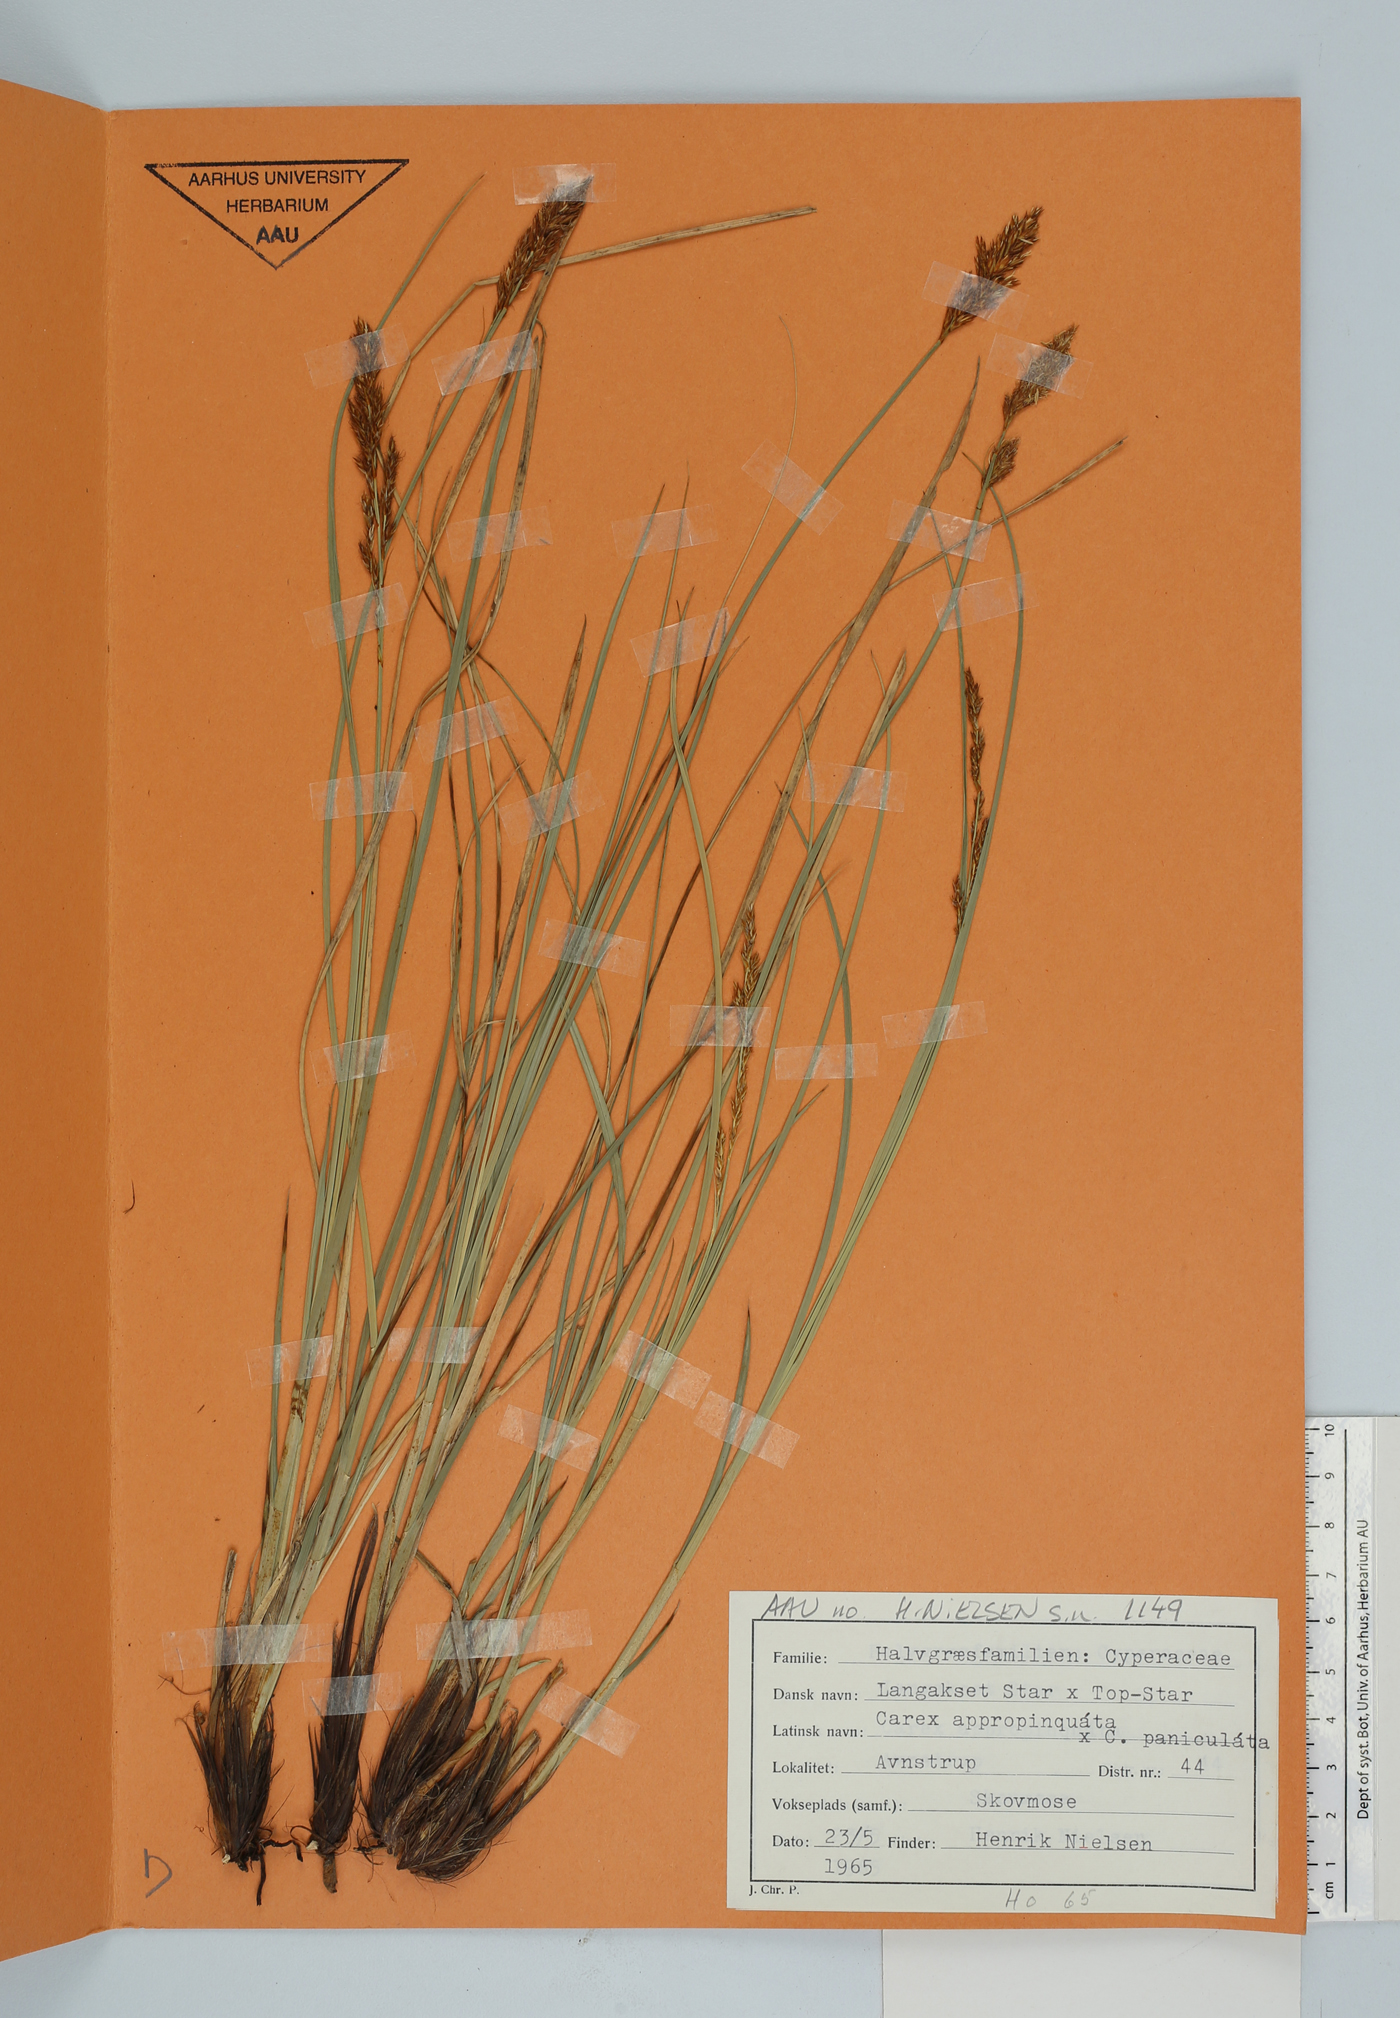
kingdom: Plantae
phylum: Tracheophyta
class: Liliopsida
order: Poales
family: Cyperaceae
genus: Carex
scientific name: Carex
